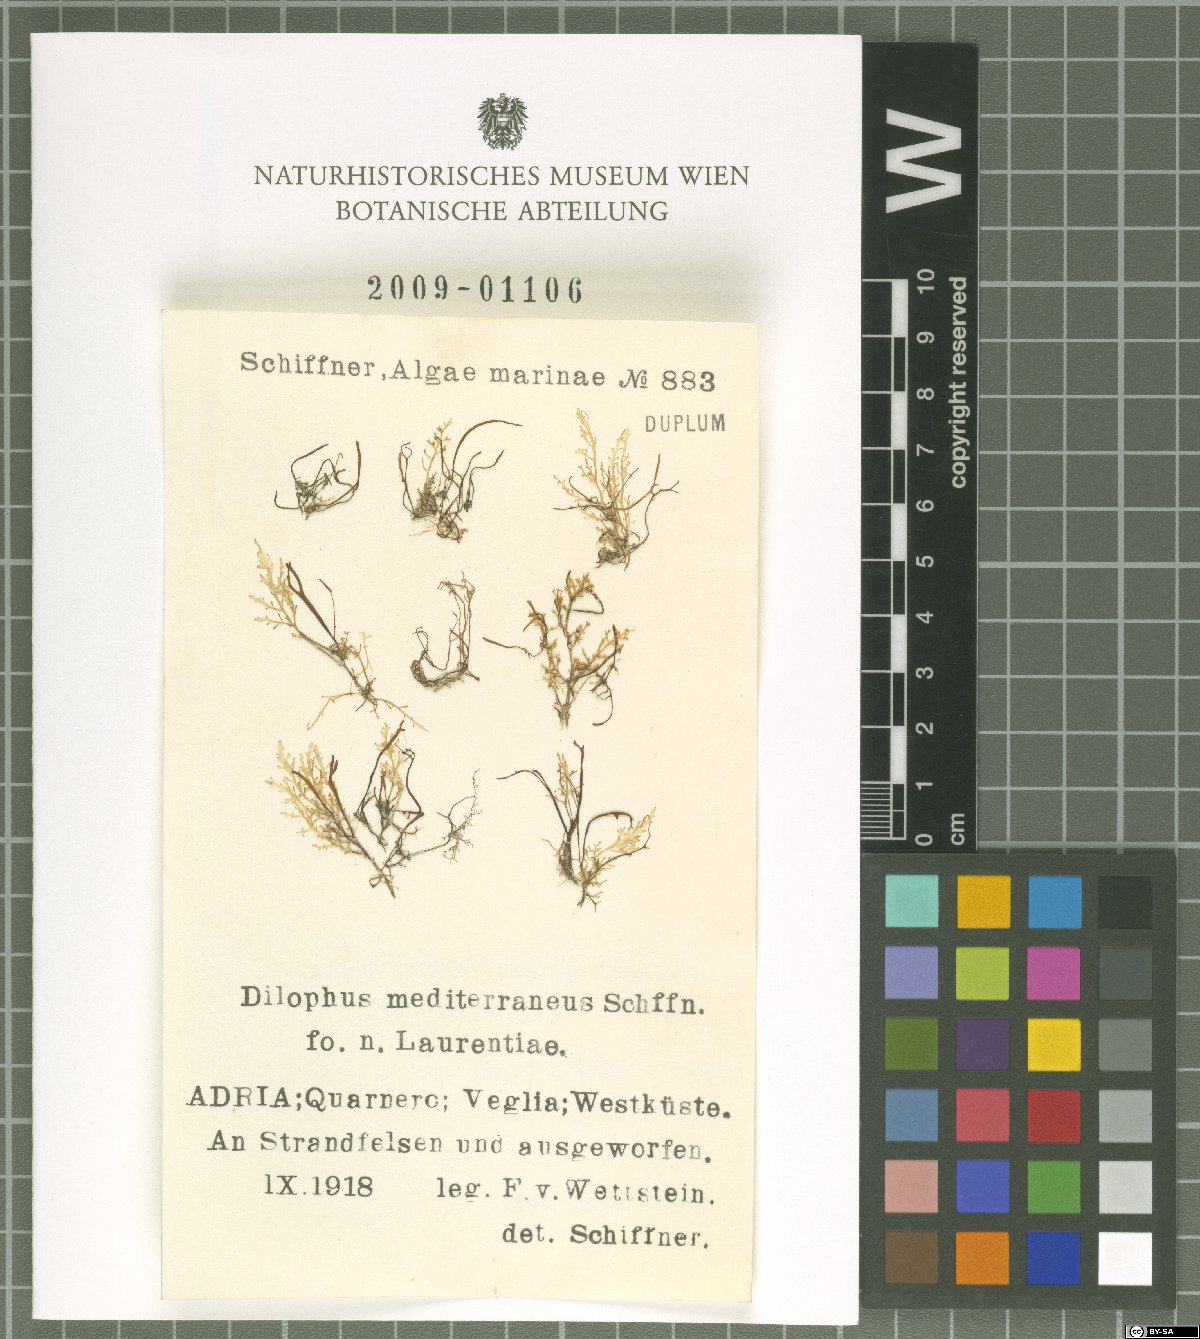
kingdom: Chromista
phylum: Ochrophyta
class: Phaeophyceae
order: Dictyotales
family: Dictyotaceae
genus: Dictyota
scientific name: Dictyota
